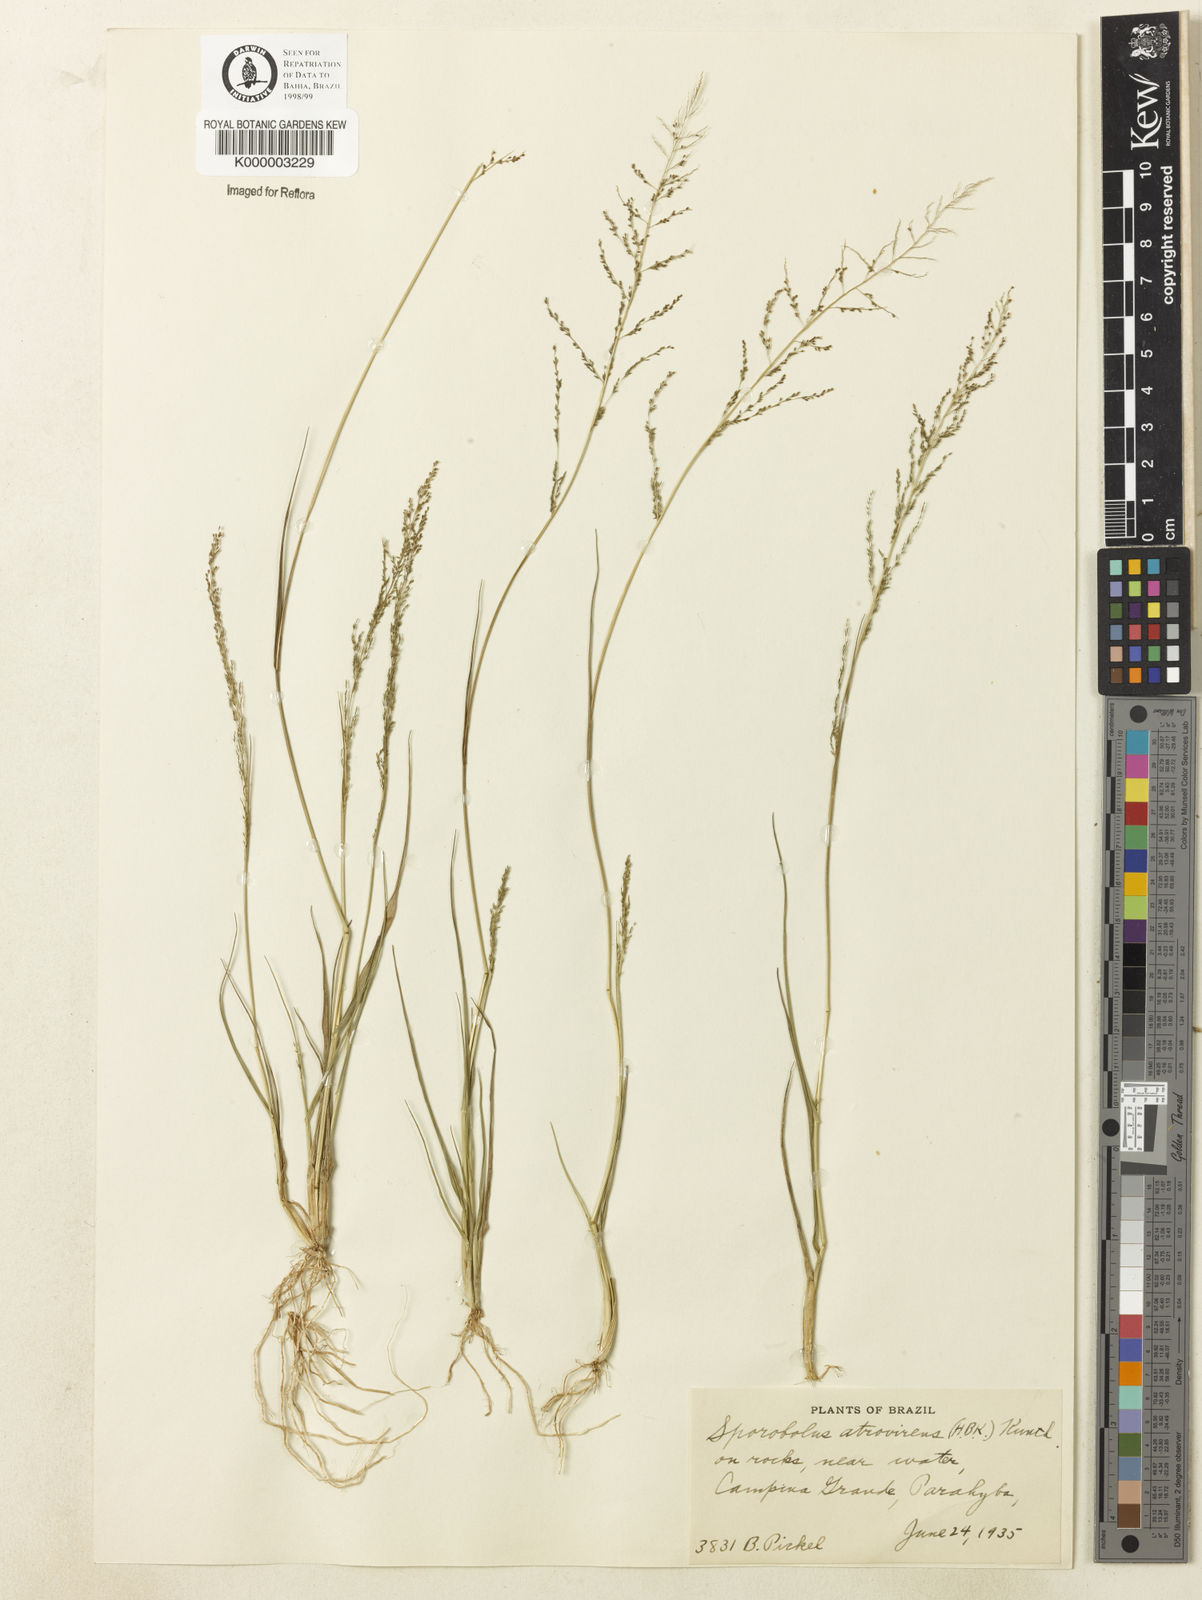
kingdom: Plantae
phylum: Tracheophyta
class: Liliopsida
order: Poales
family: Poaceae
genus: Sporobolus
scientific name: Sporobolus atrovirens
